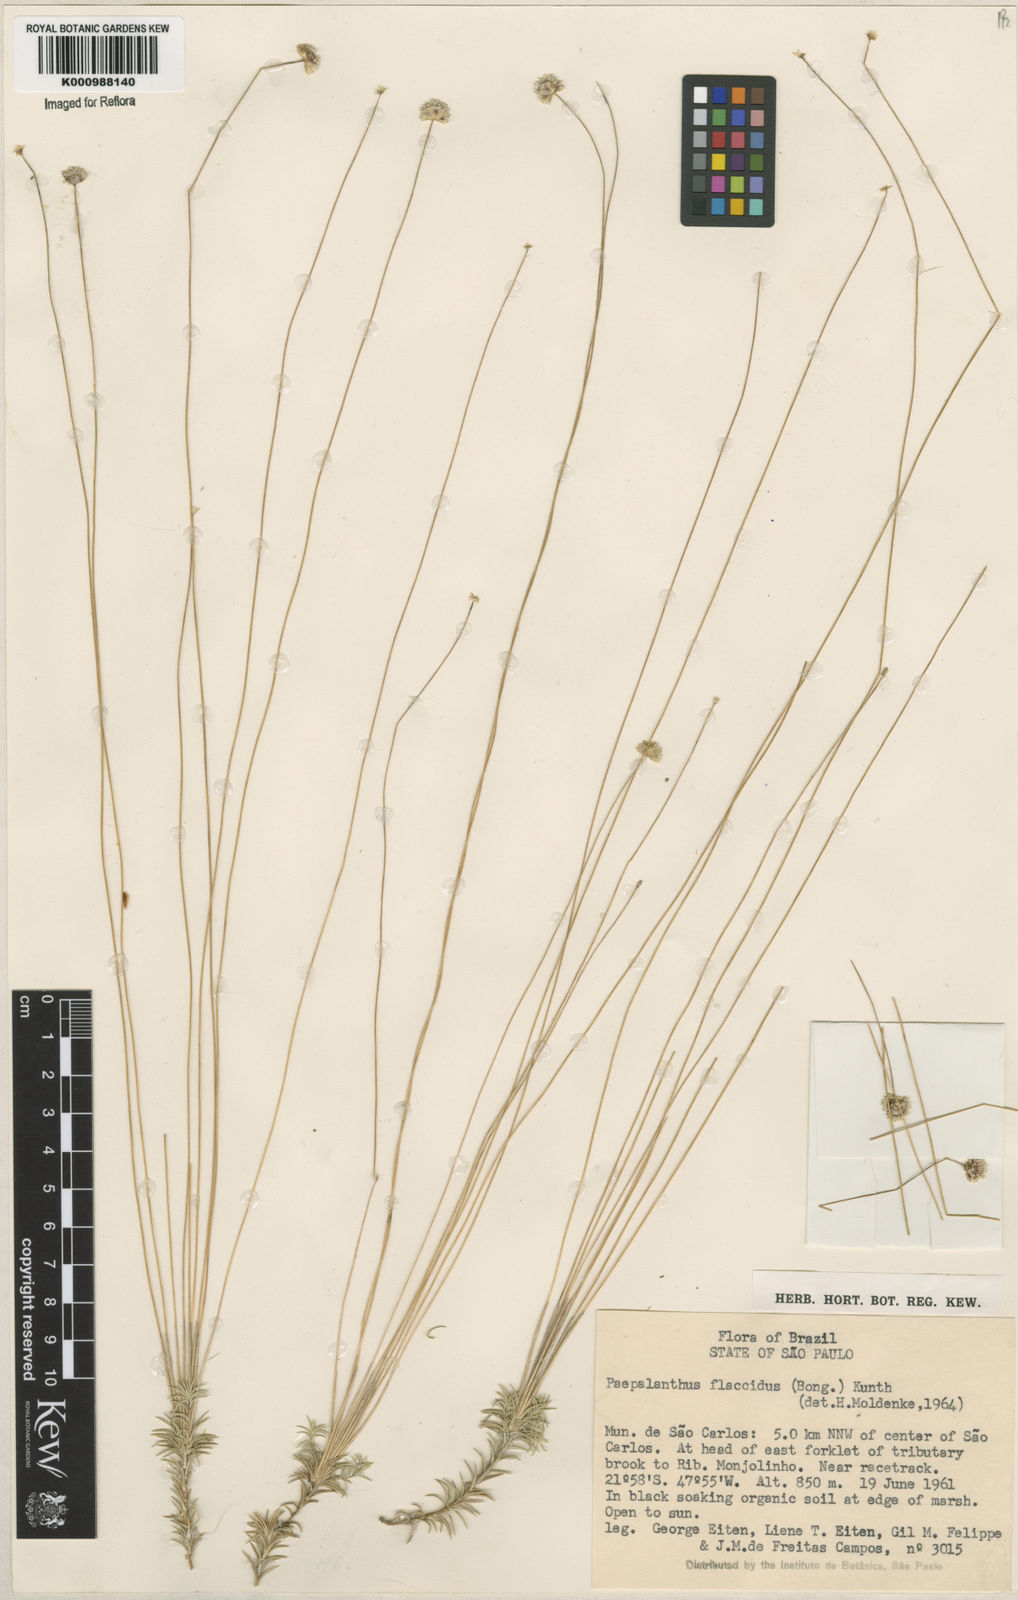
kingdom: Plantae
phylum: Tracheophyta
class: Liliopsida
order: Poales
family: Eriocaulaceae
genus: Paepalanthus
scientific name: Paepalanthus flaccidus
